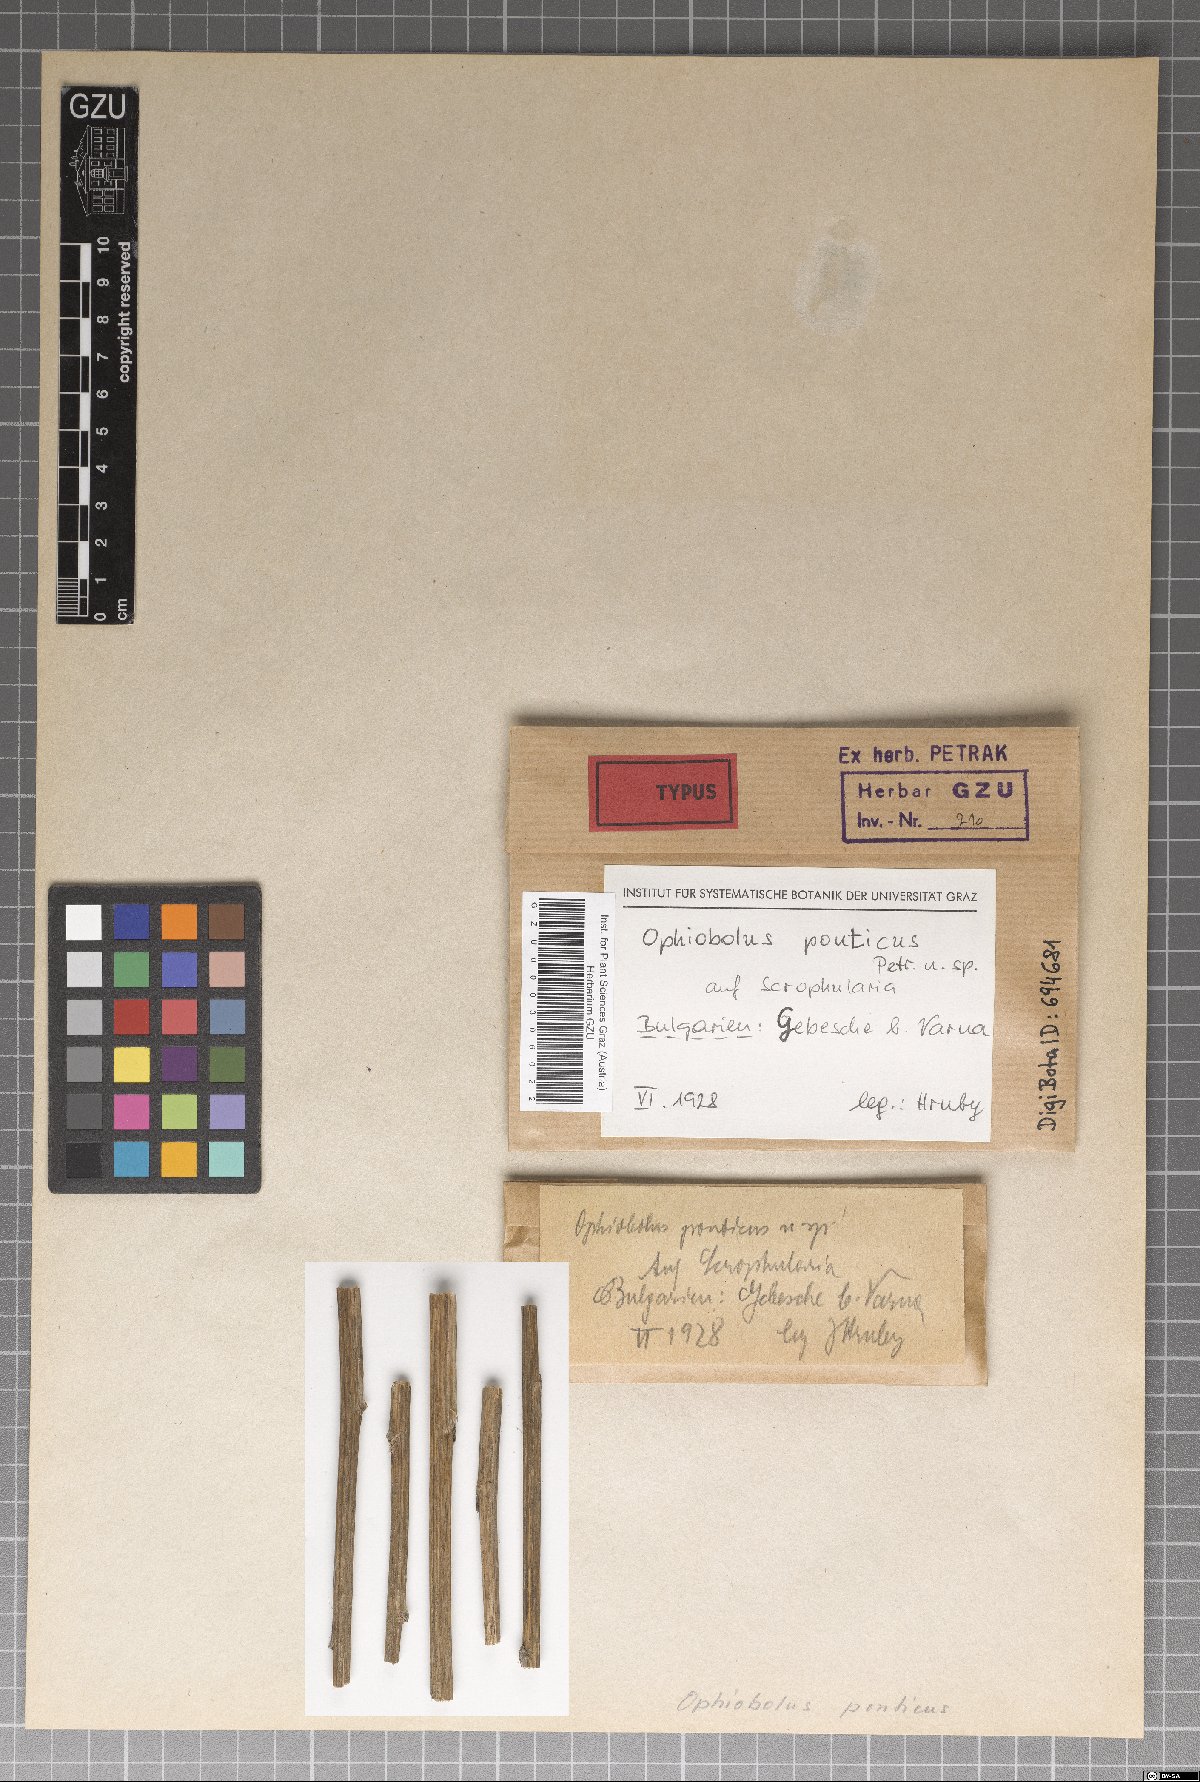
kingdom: Fungi
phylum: Ascomycota
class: Dothideomycetes
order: Pleosporales
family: Phaeosphaeriaceae
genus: Nodulosphaeria
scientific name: Nodulosphaeria pontica
